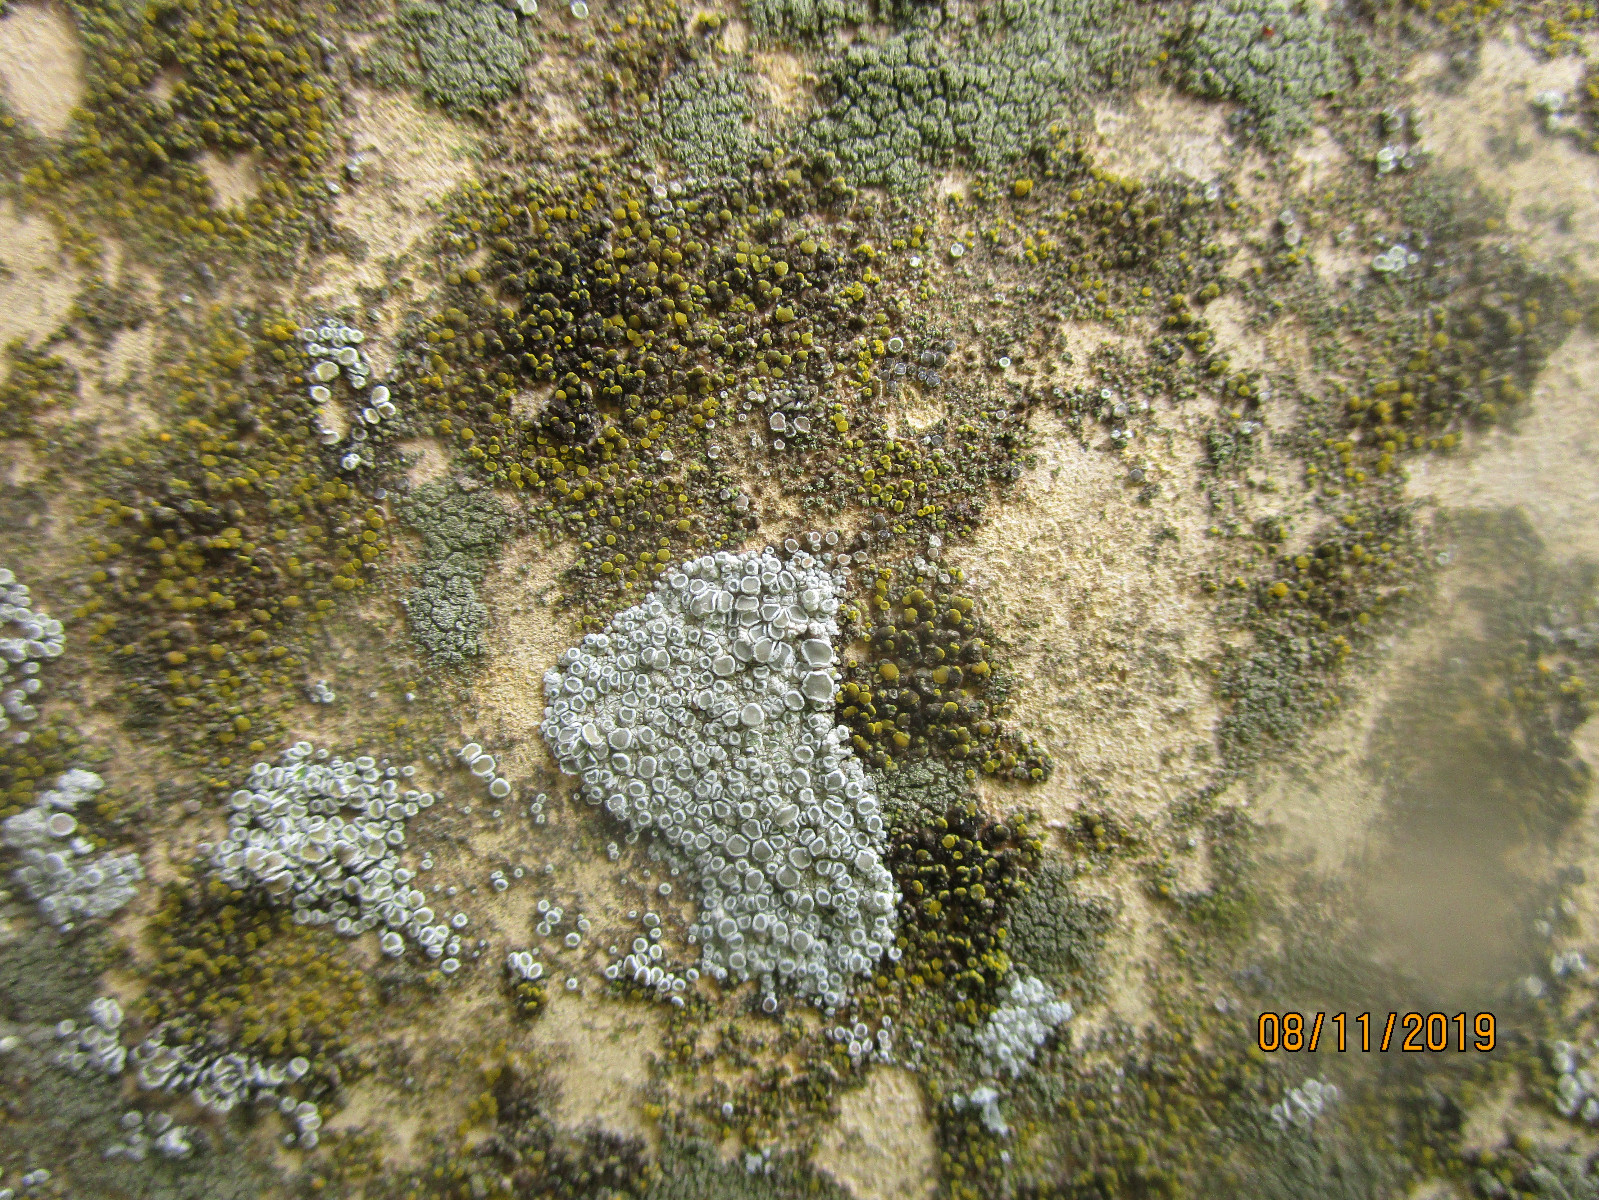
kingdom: Fungi
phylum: Ascomycota
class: Lecanoromycetes
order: Lecanorales
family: Lecanoraceae
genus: Polyozosia
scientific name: Polyozosia albescens
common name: cement-kantskivelav
